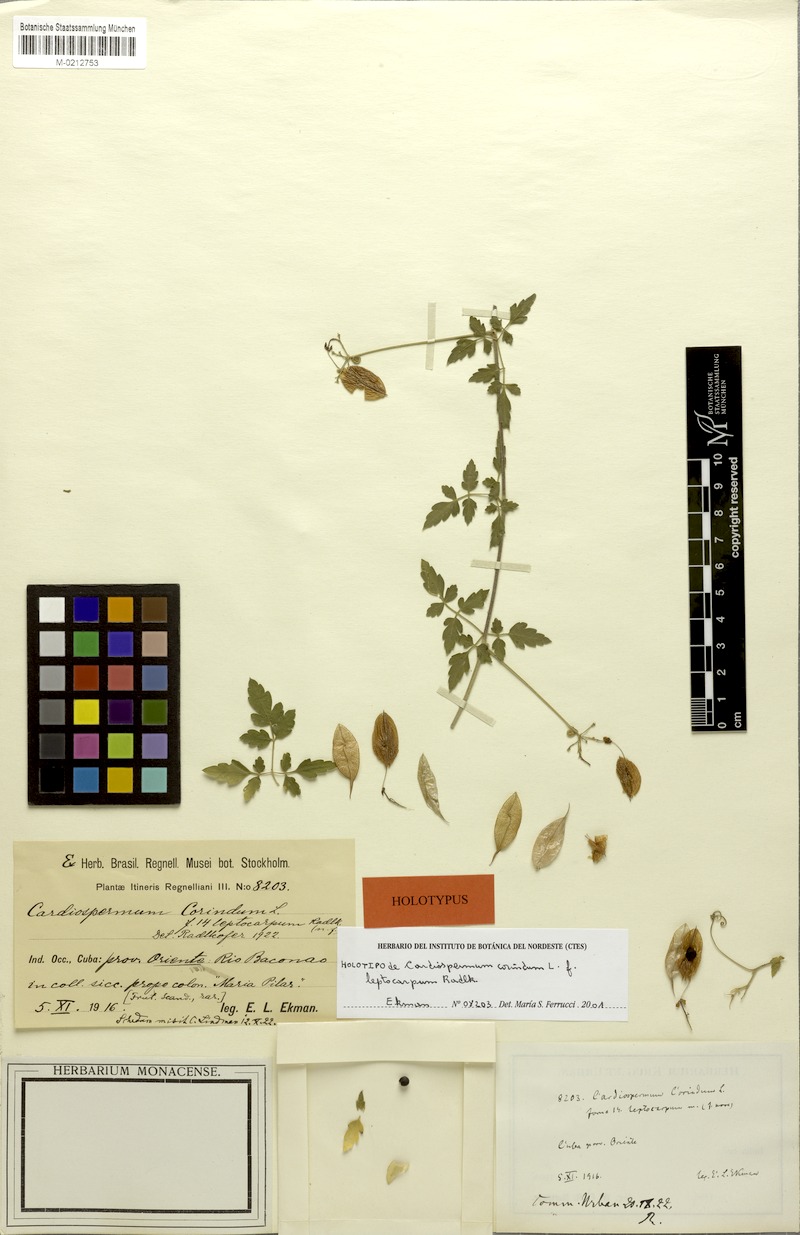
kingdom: Plantae
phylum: Tracheophyta
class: Magnoliopsida
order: Sapindales
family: Sapindaceae
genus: Cardiospermum
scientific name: Cardiospermum corindum
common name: Faux persil
